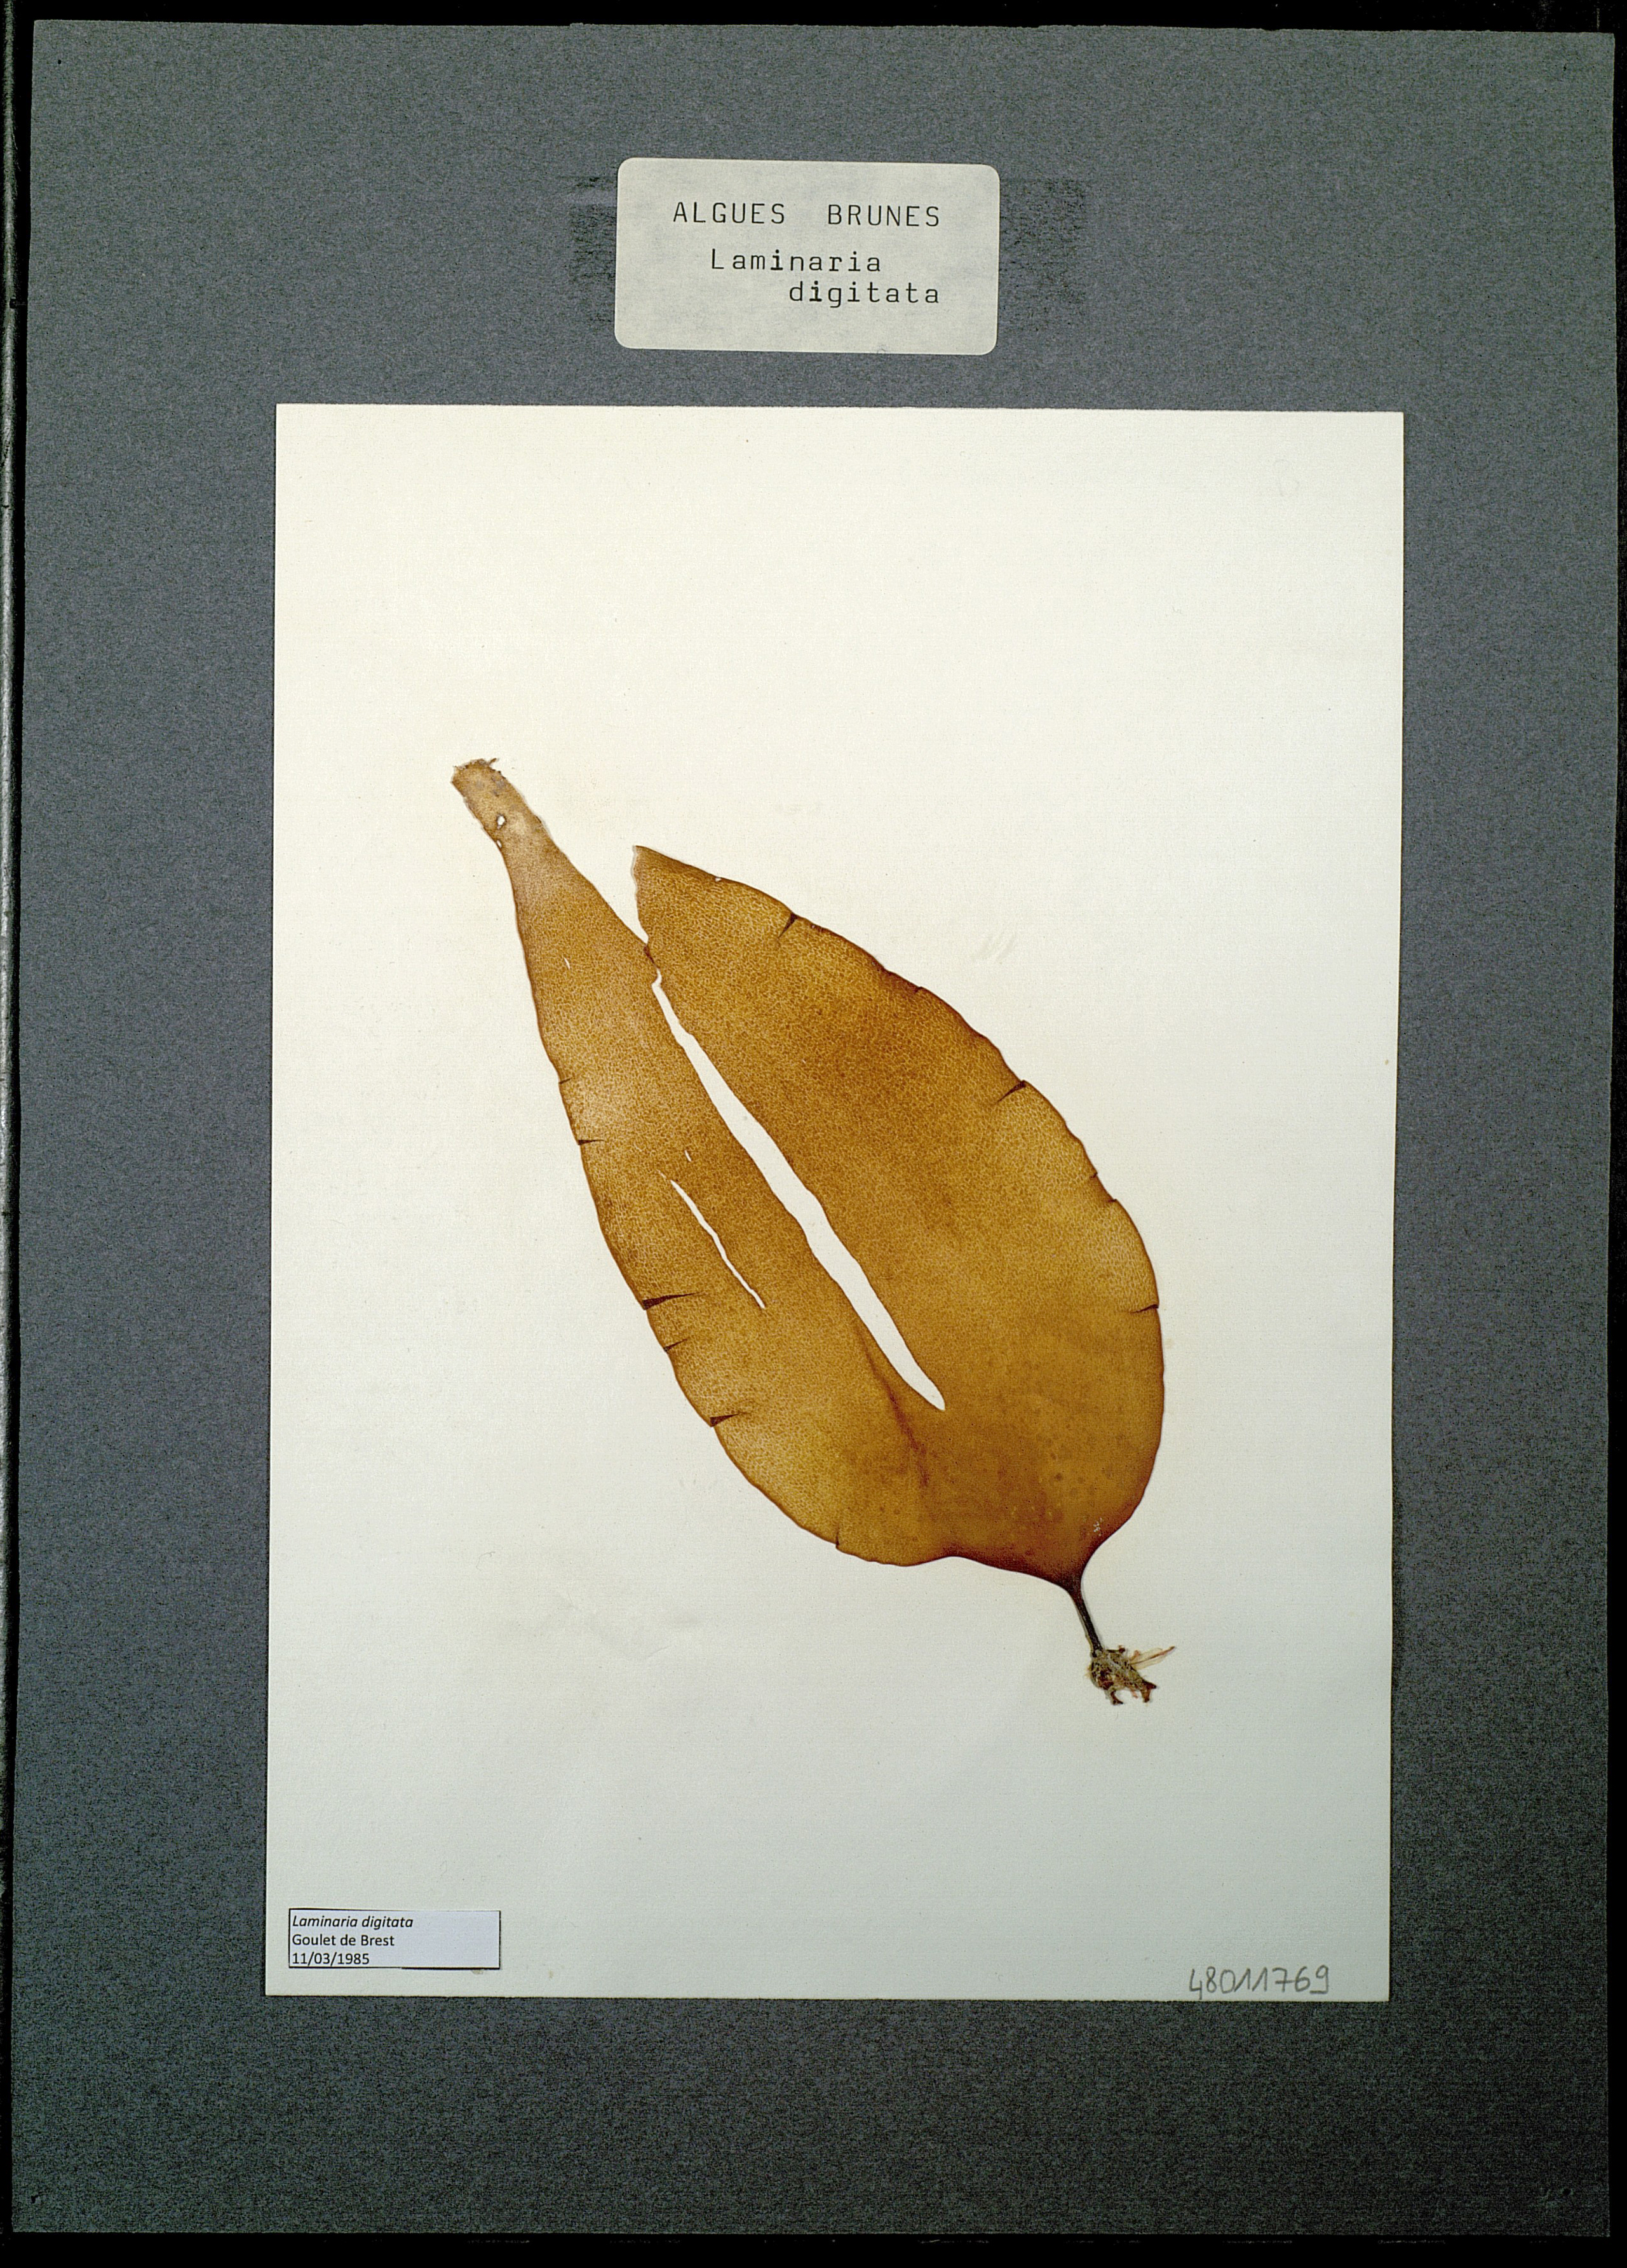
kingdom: Chromista
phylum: Ochrophyta
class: Phaeophyceae
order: Laminariales
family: Laminariaceae
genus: Laminaria
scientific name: Laminaria digitata
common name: Oarweed
